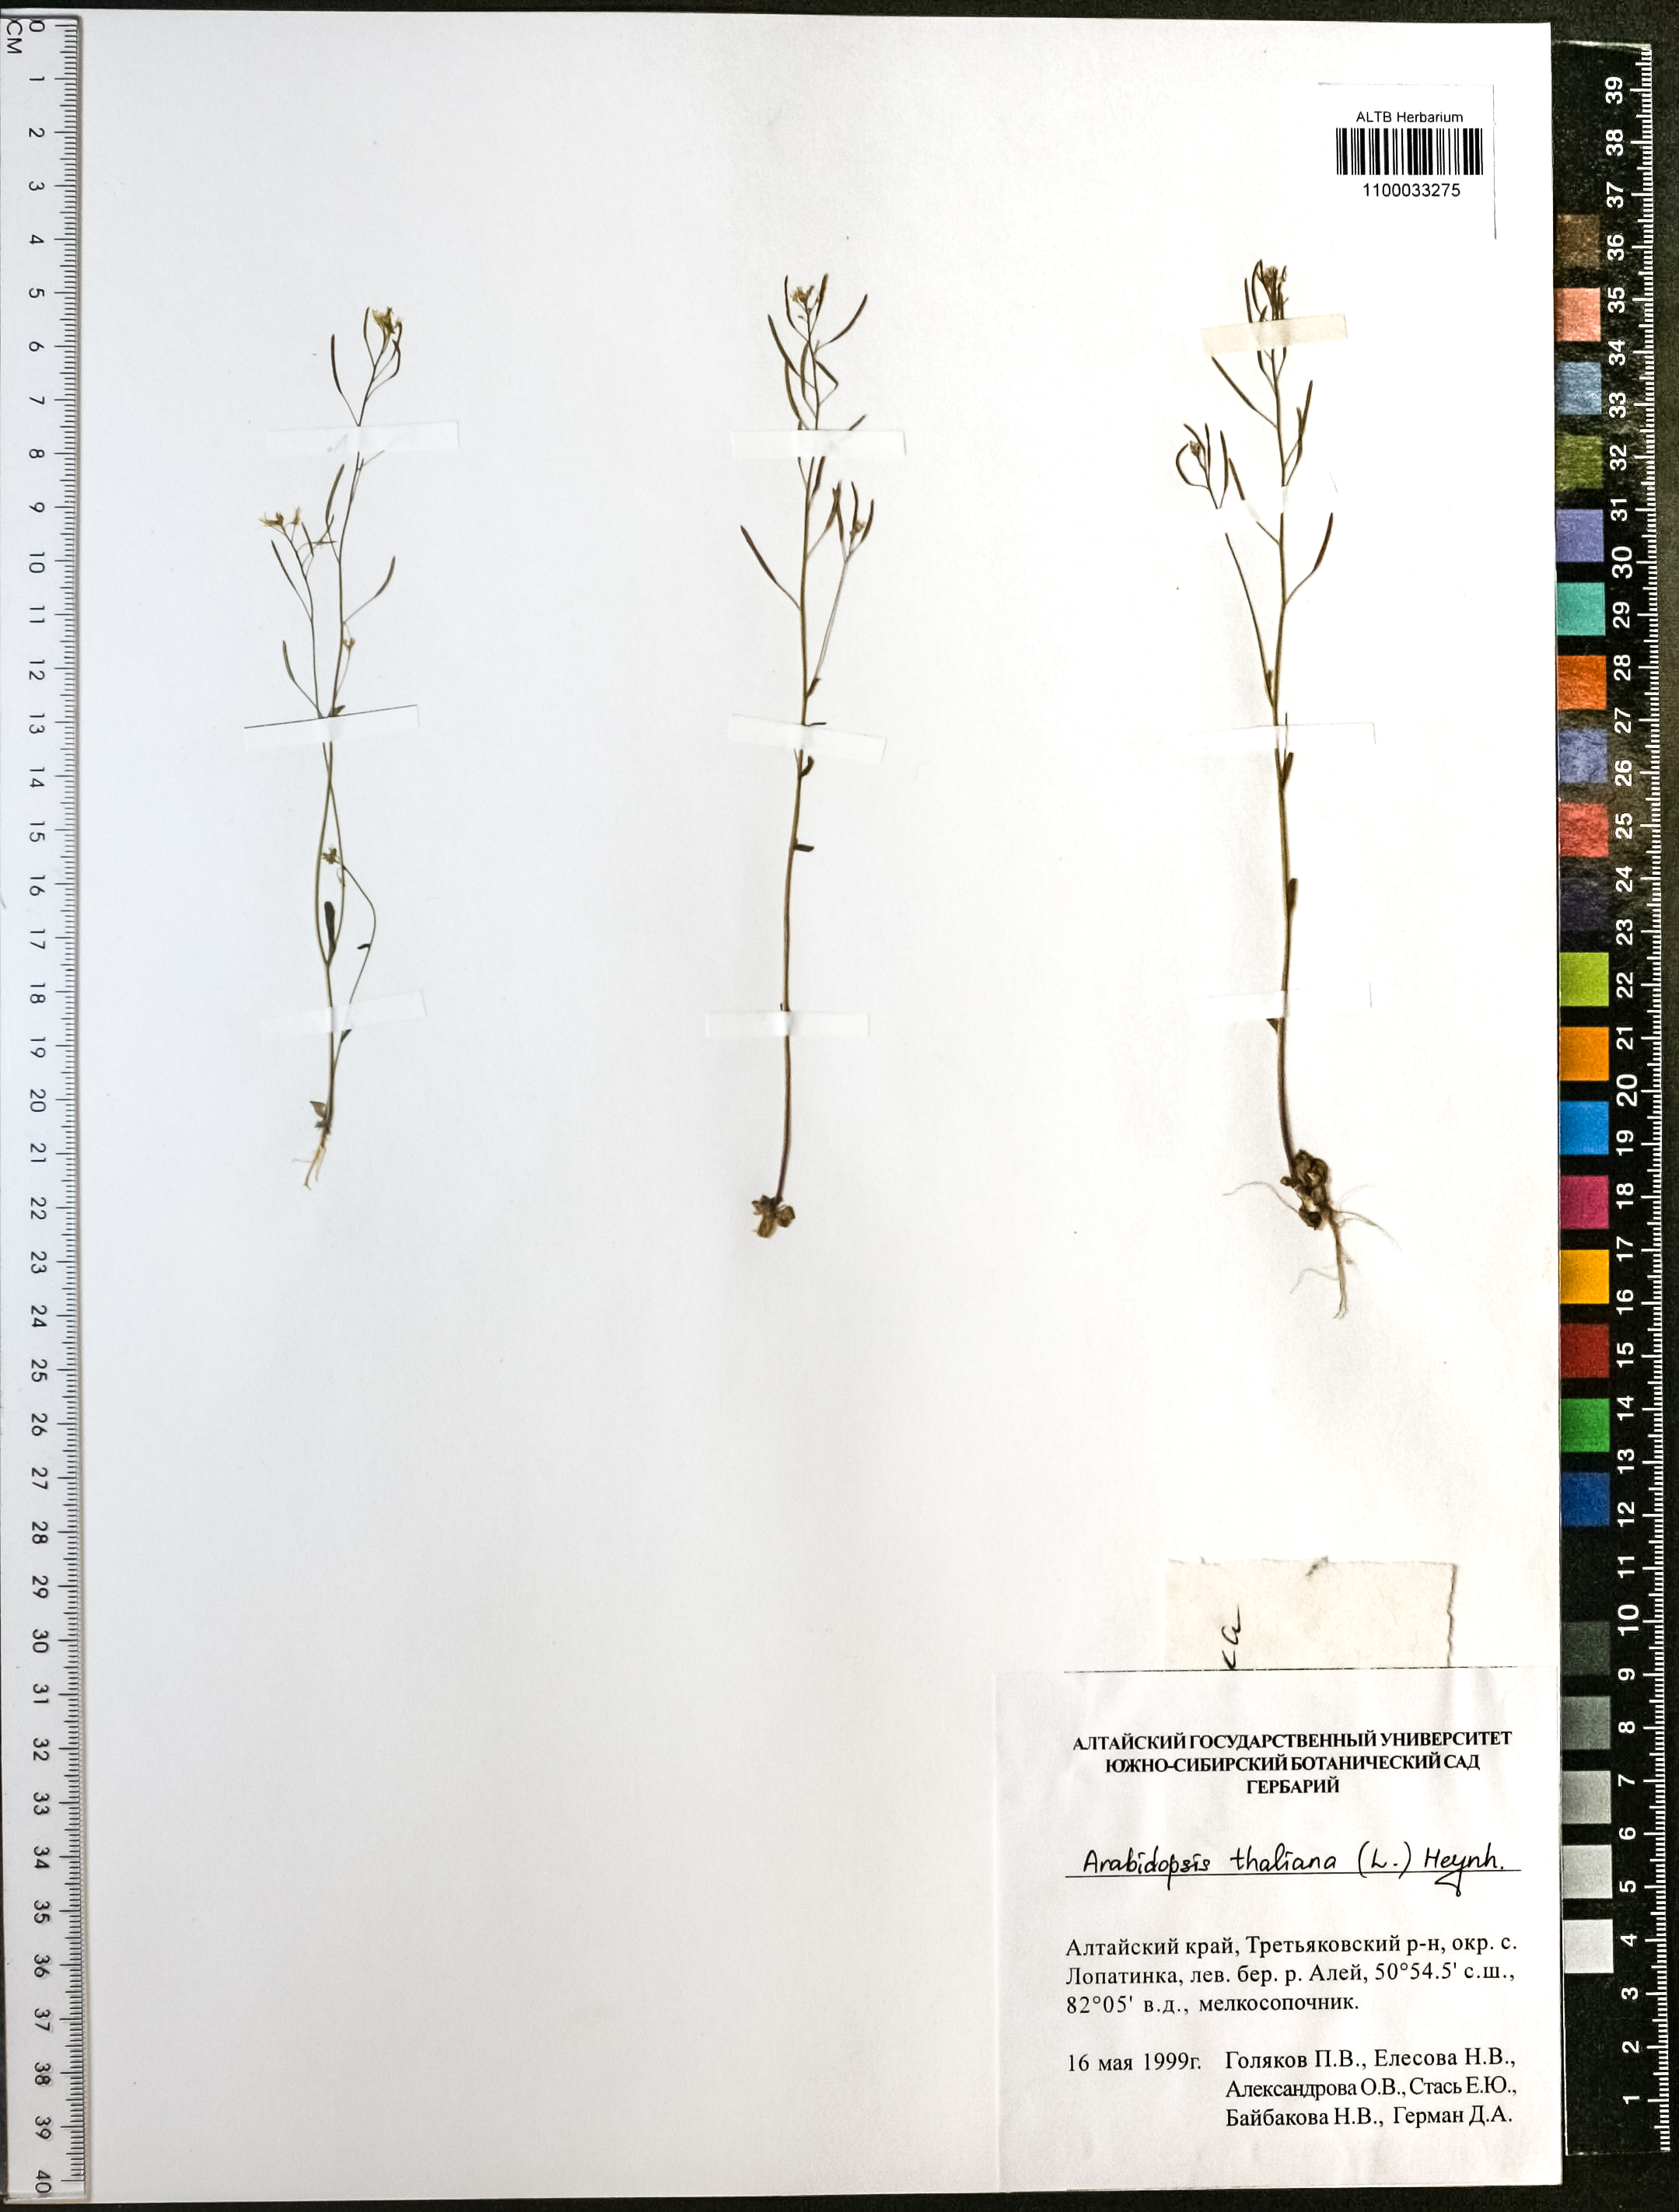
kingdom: Plantae
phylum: Tracheophyta
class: Magnoliopsida
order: Brassicales
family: Brassicaceae
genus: Arabidopsis
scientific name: Arabidopsis thaliana
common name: Thale cress
